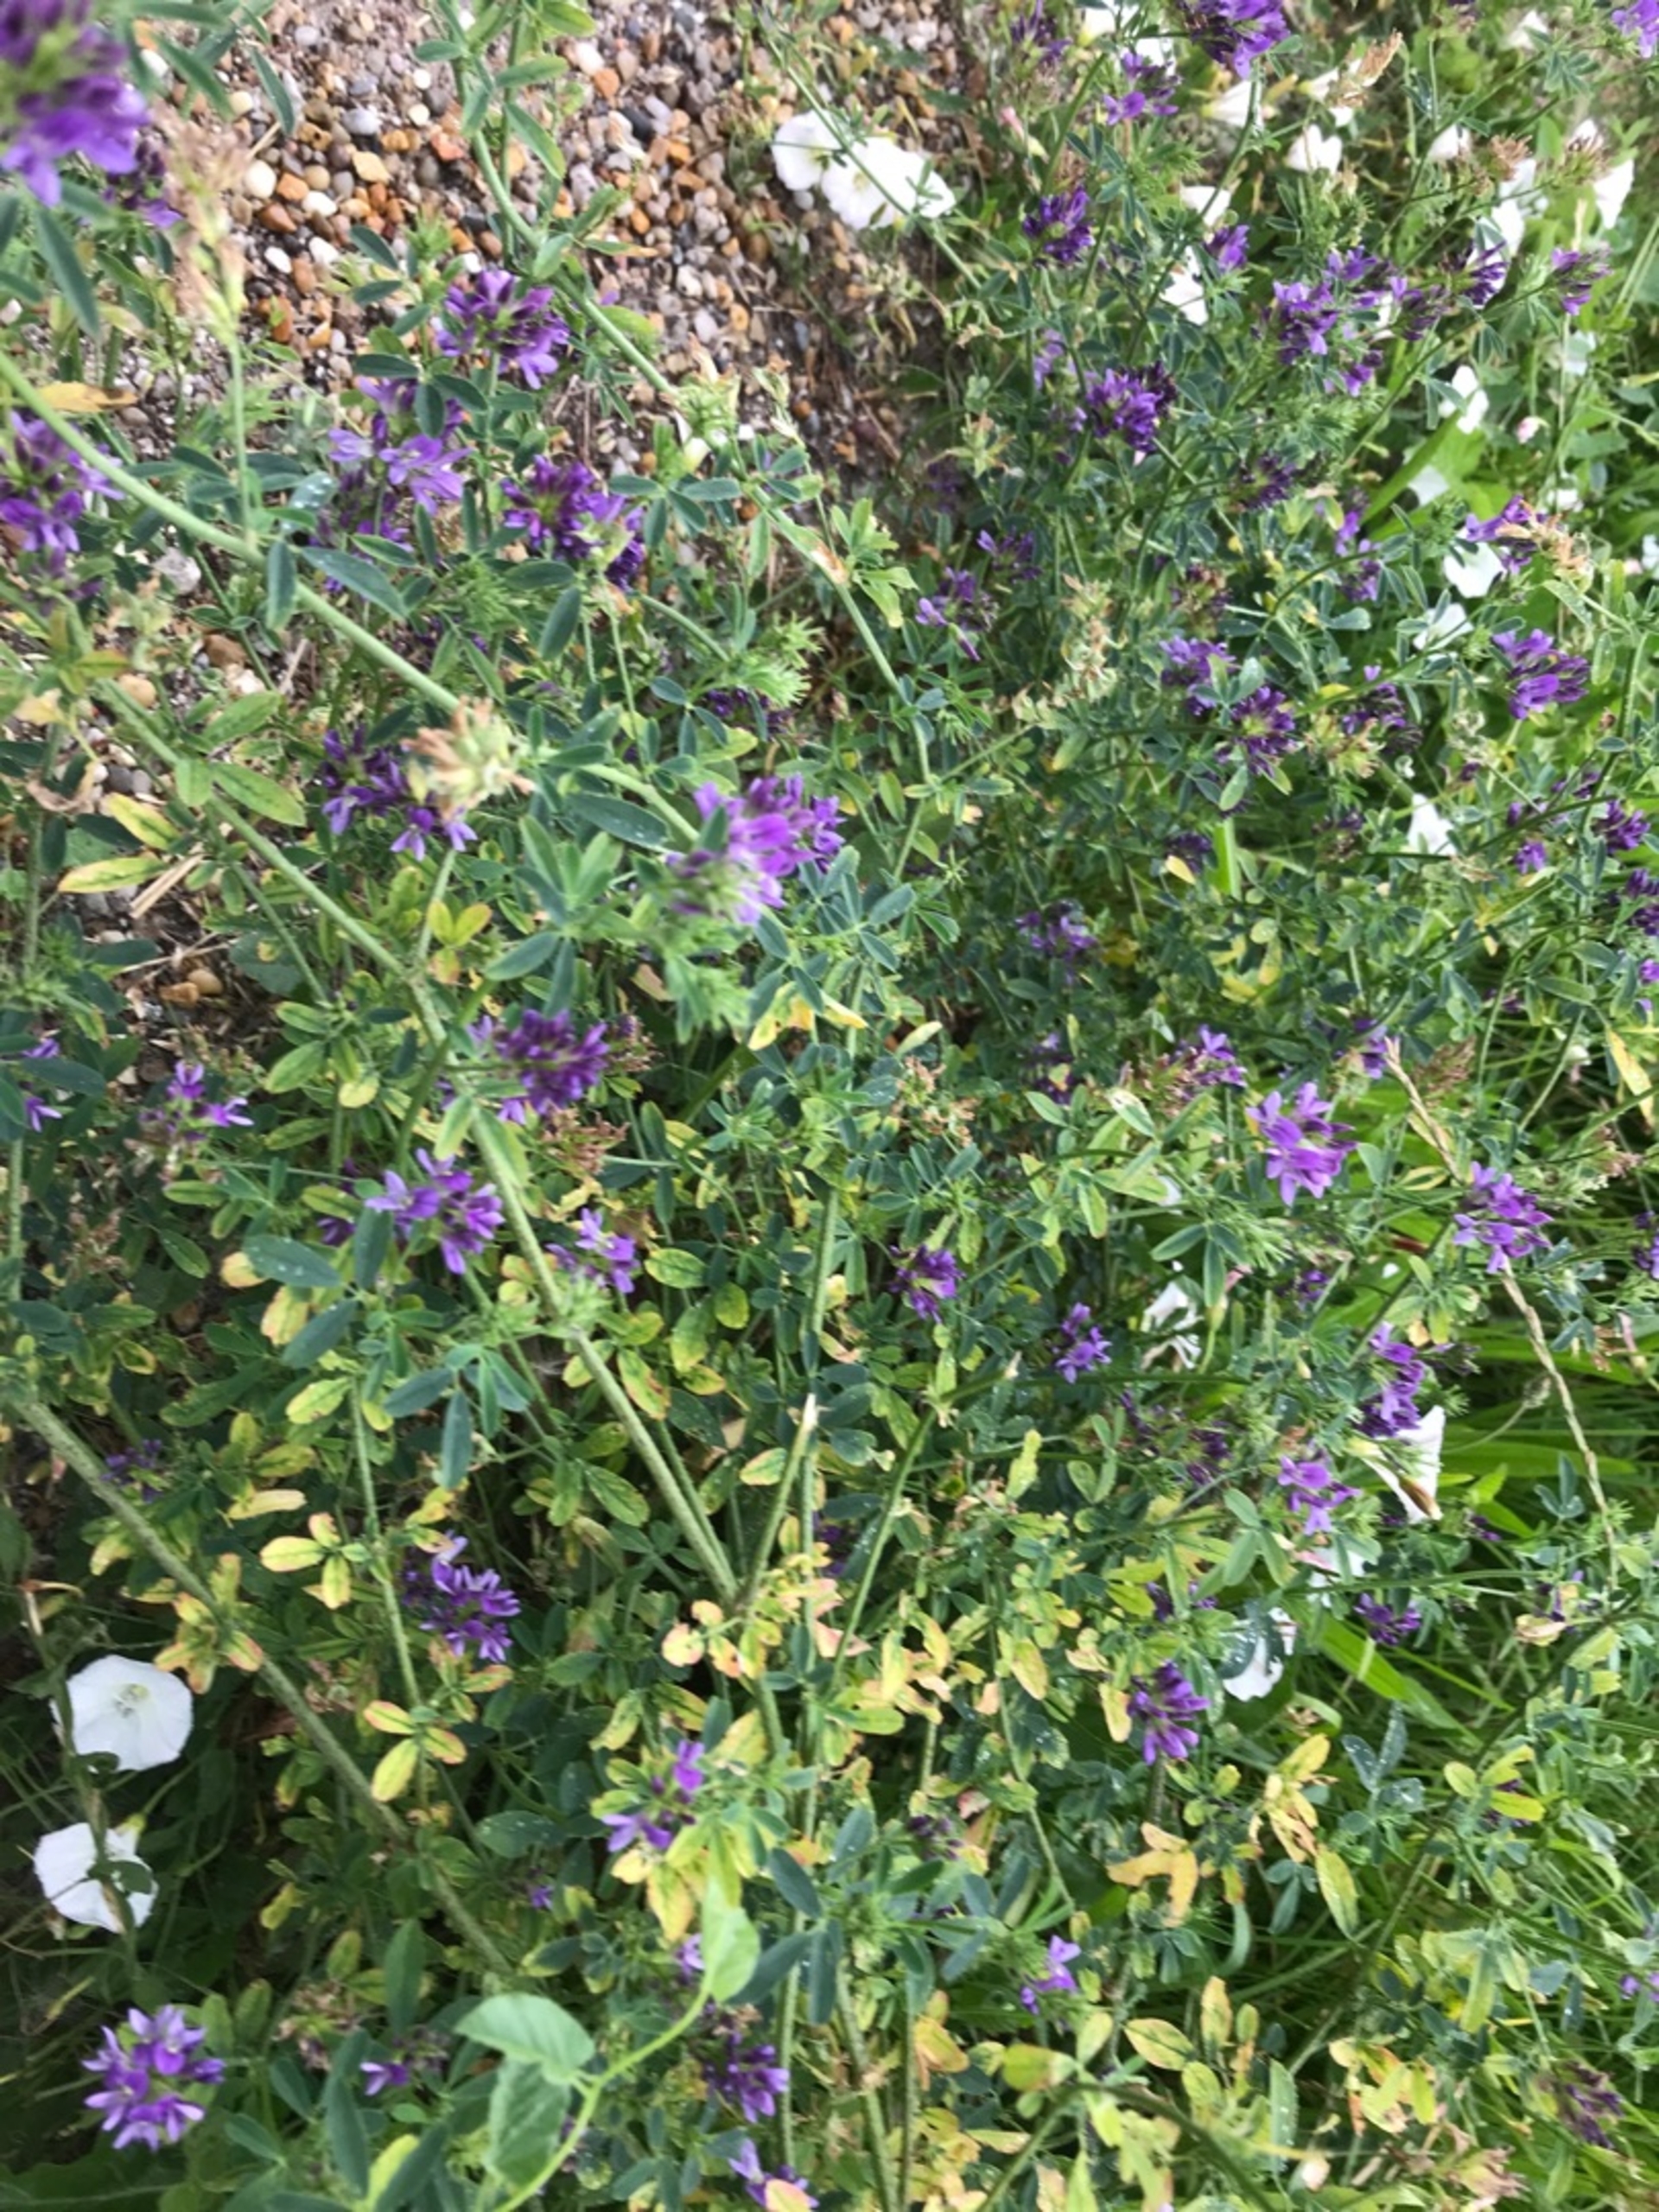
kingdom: Plantae
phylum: Tracheophyta
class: Magnoliopsida
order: Fabales
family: Fabaceae
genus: Medicago
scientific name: Medicago sativa
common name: Lucerne
